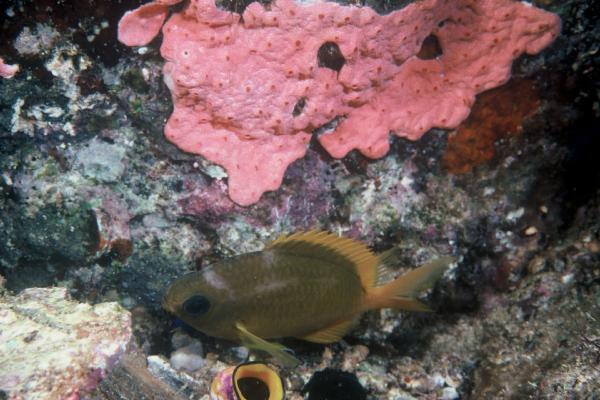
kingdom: Animalia
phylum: Chordata
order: Perciformes
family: Pomacentridae
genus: Chromis
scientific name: Chromis analis
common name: Yellow chromis
